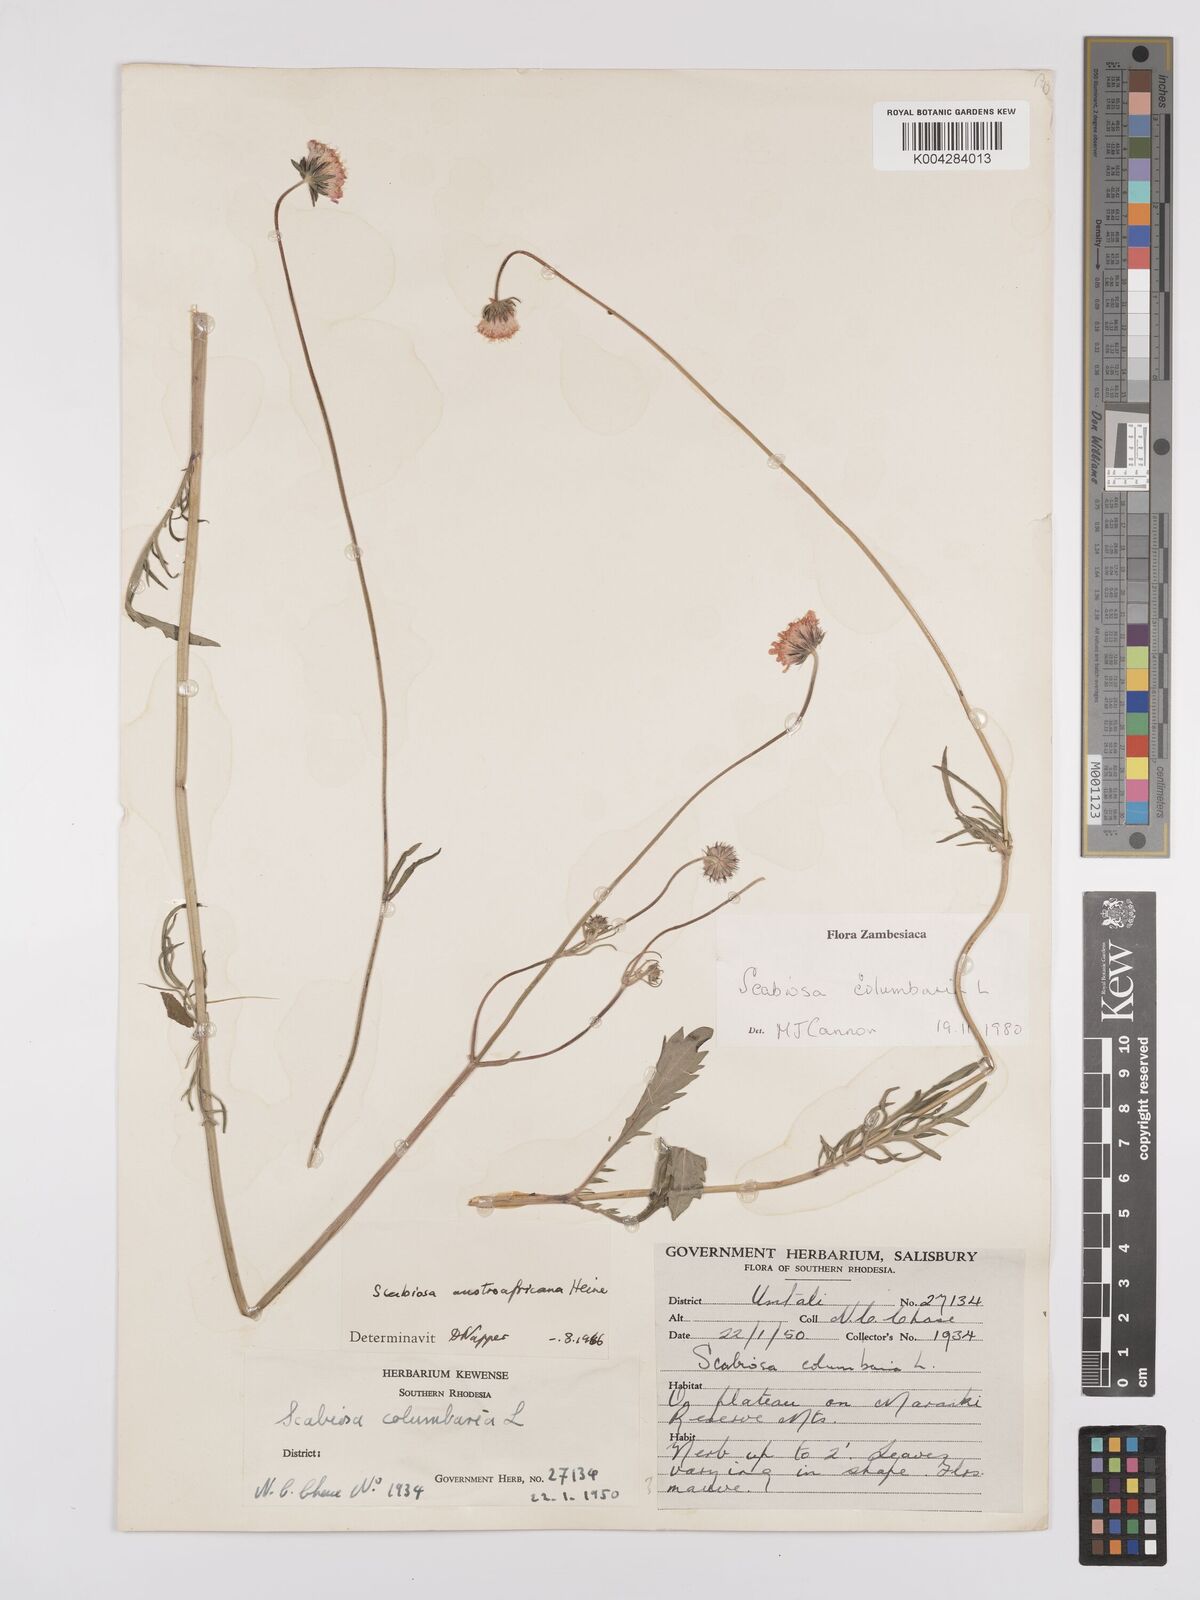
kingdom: Plantae
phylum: Tracheophyta
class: Magnoliopsida
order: Dipsacales
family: Caprifoliaceae
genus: Scabiosa
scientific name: Scabiosa austroafricana
